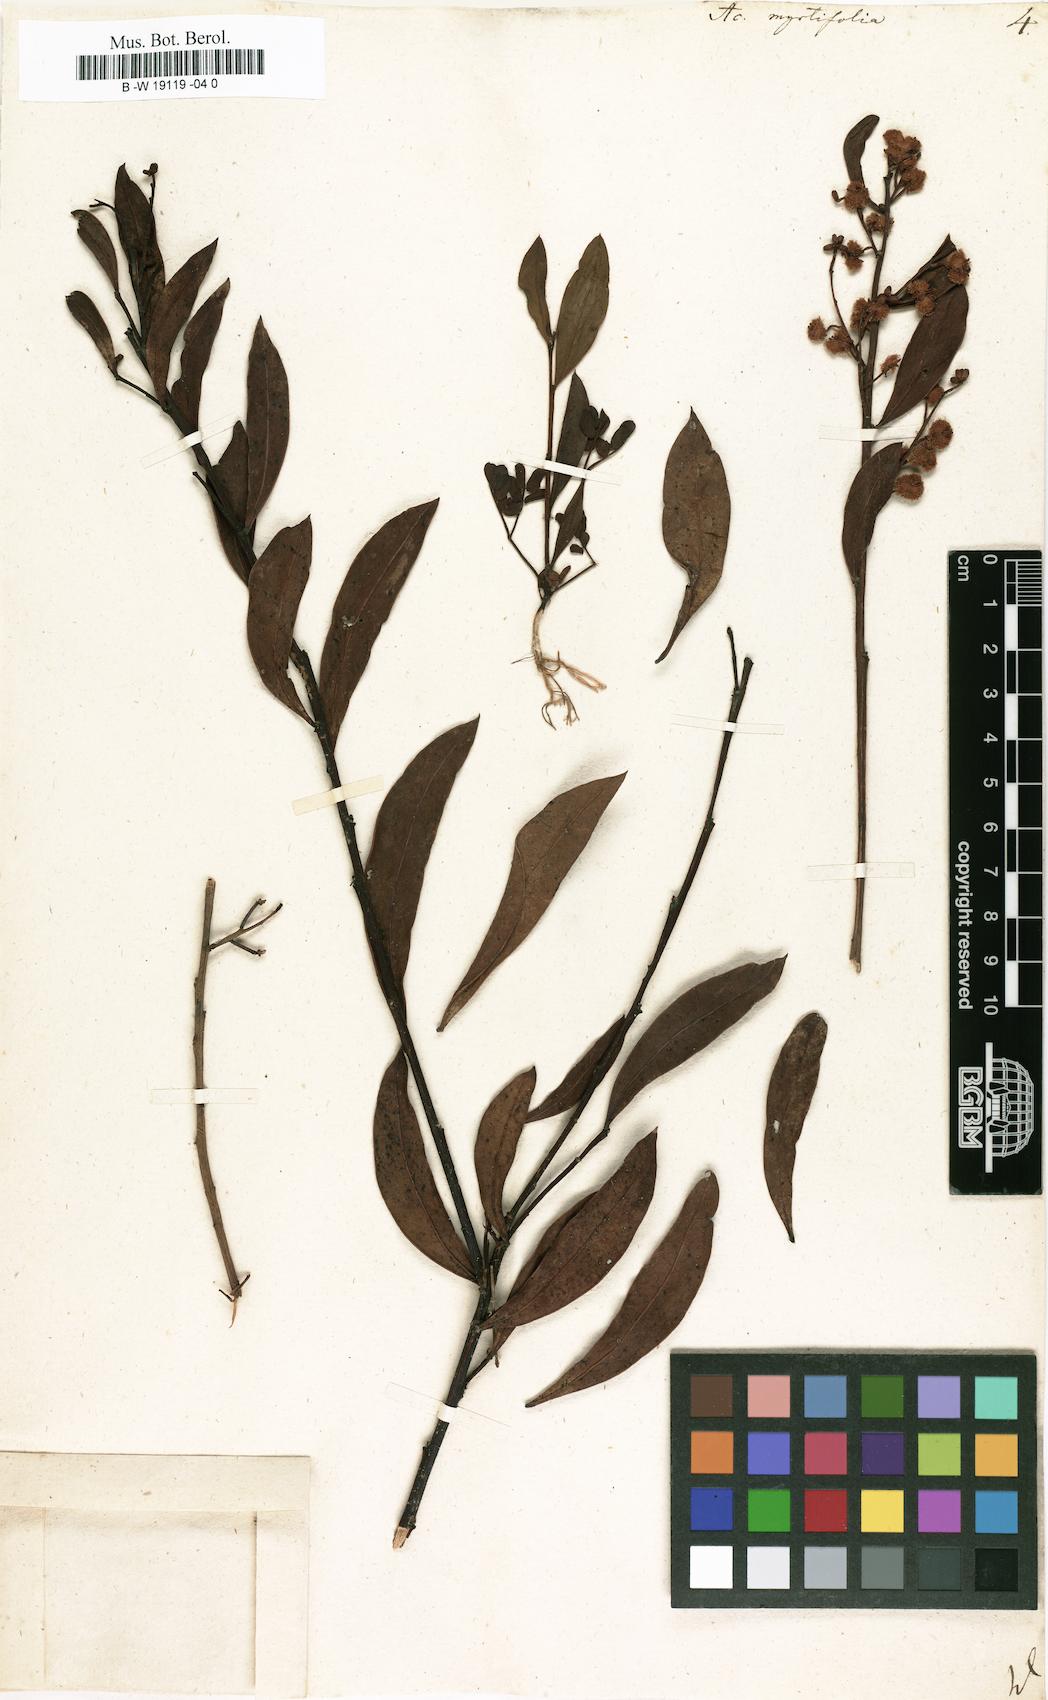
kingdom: Plantae
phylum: Tracheophyta
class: Magnoliopsida
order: Fabales
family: Fabaceae
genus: Acacia
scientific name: Acacia myrtifolia
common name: Myrtle wattle
